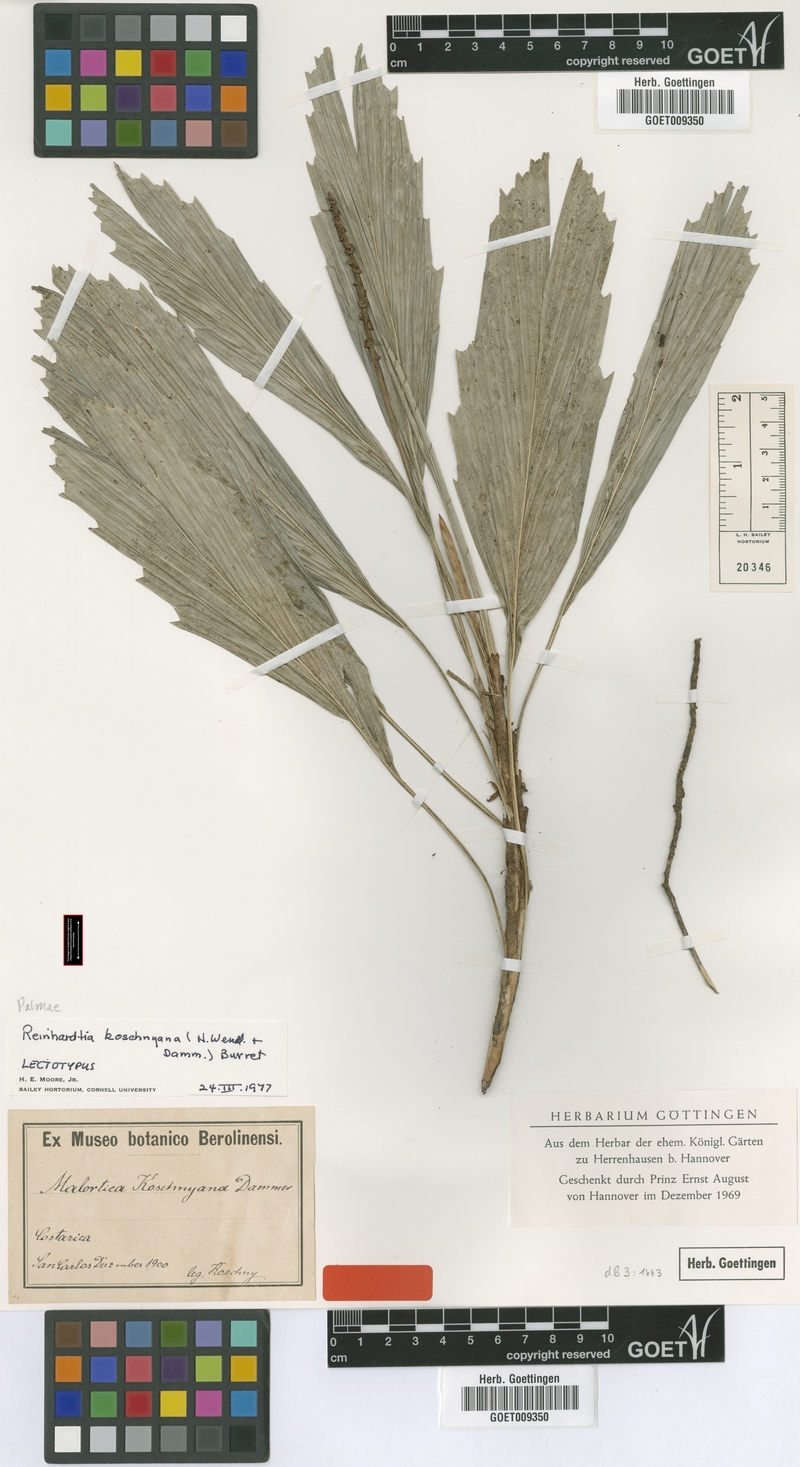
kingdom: Plantae
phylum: Tracheophyta
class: Liliopsida
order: Arecales
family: Arecaceae
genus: Reinhardtia
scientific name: Reinhardtia koschnyana
